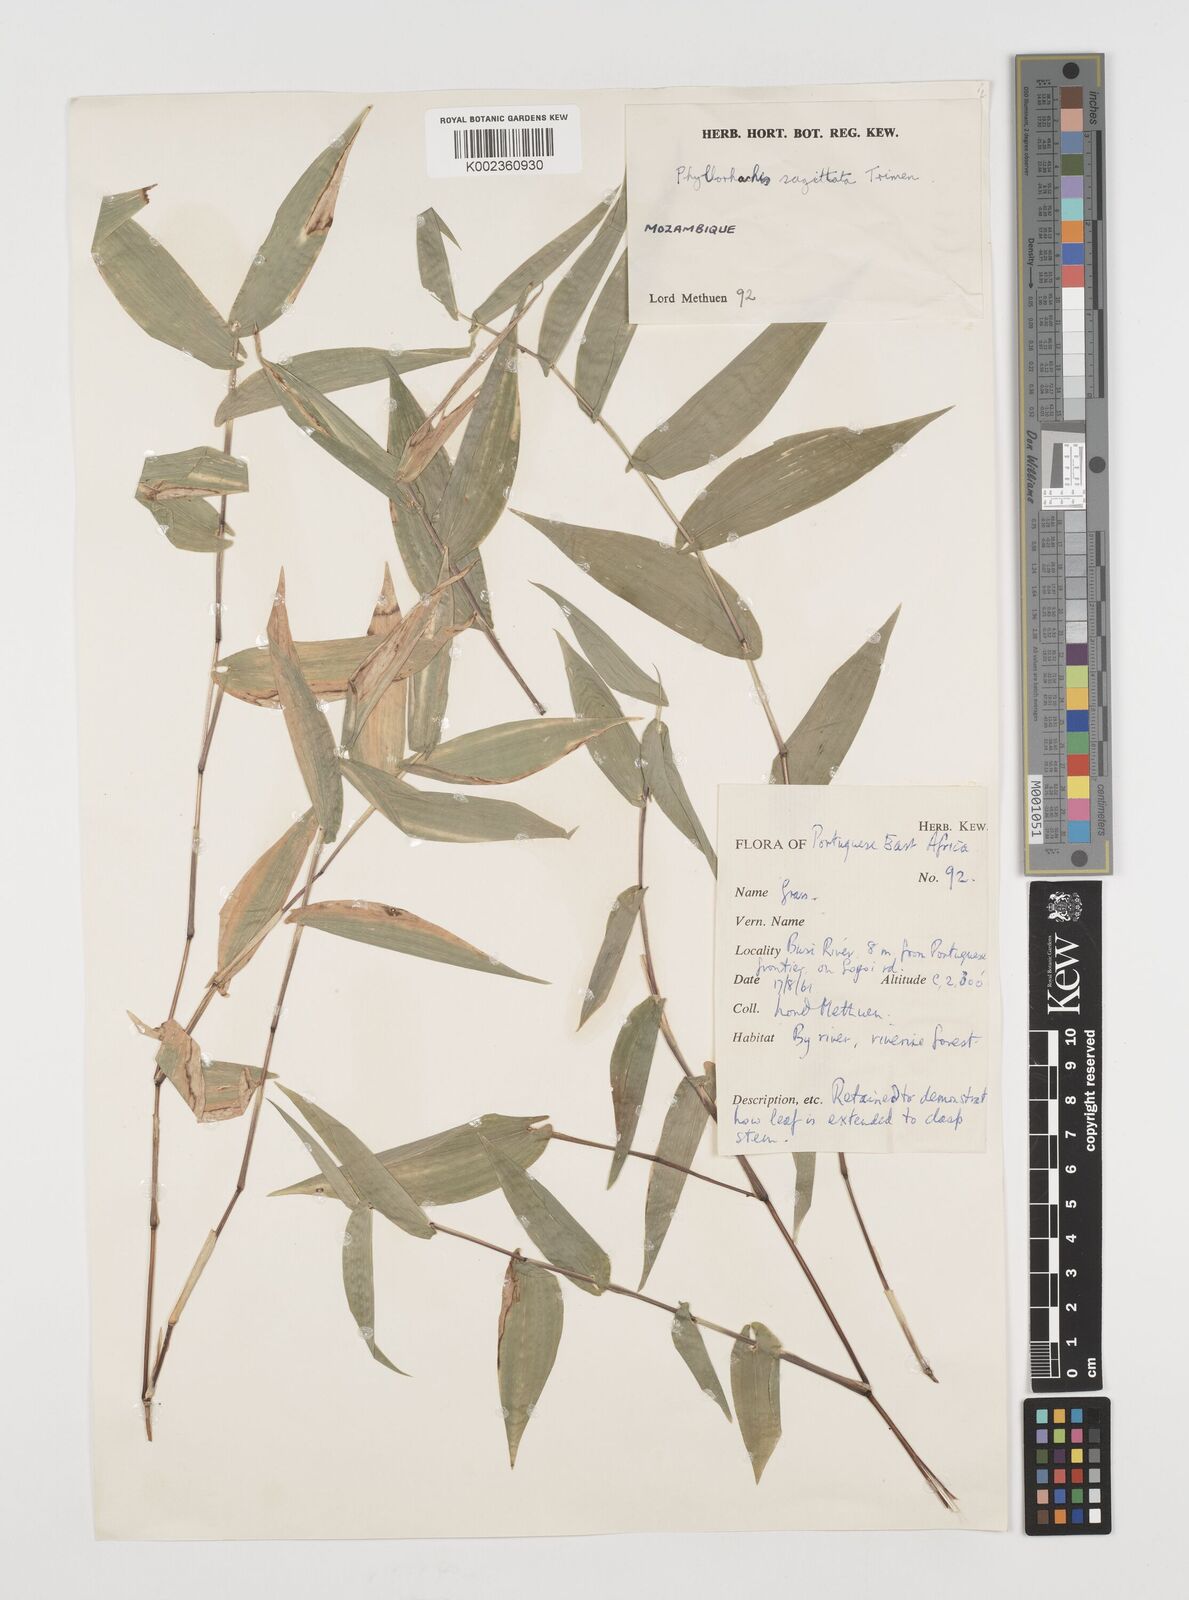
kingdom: Plantae
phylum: Tracheophyta
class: Liliopsida
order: Poales
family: Poaceae
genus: Phyllorachis
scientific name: Phyllorachis sagittata
